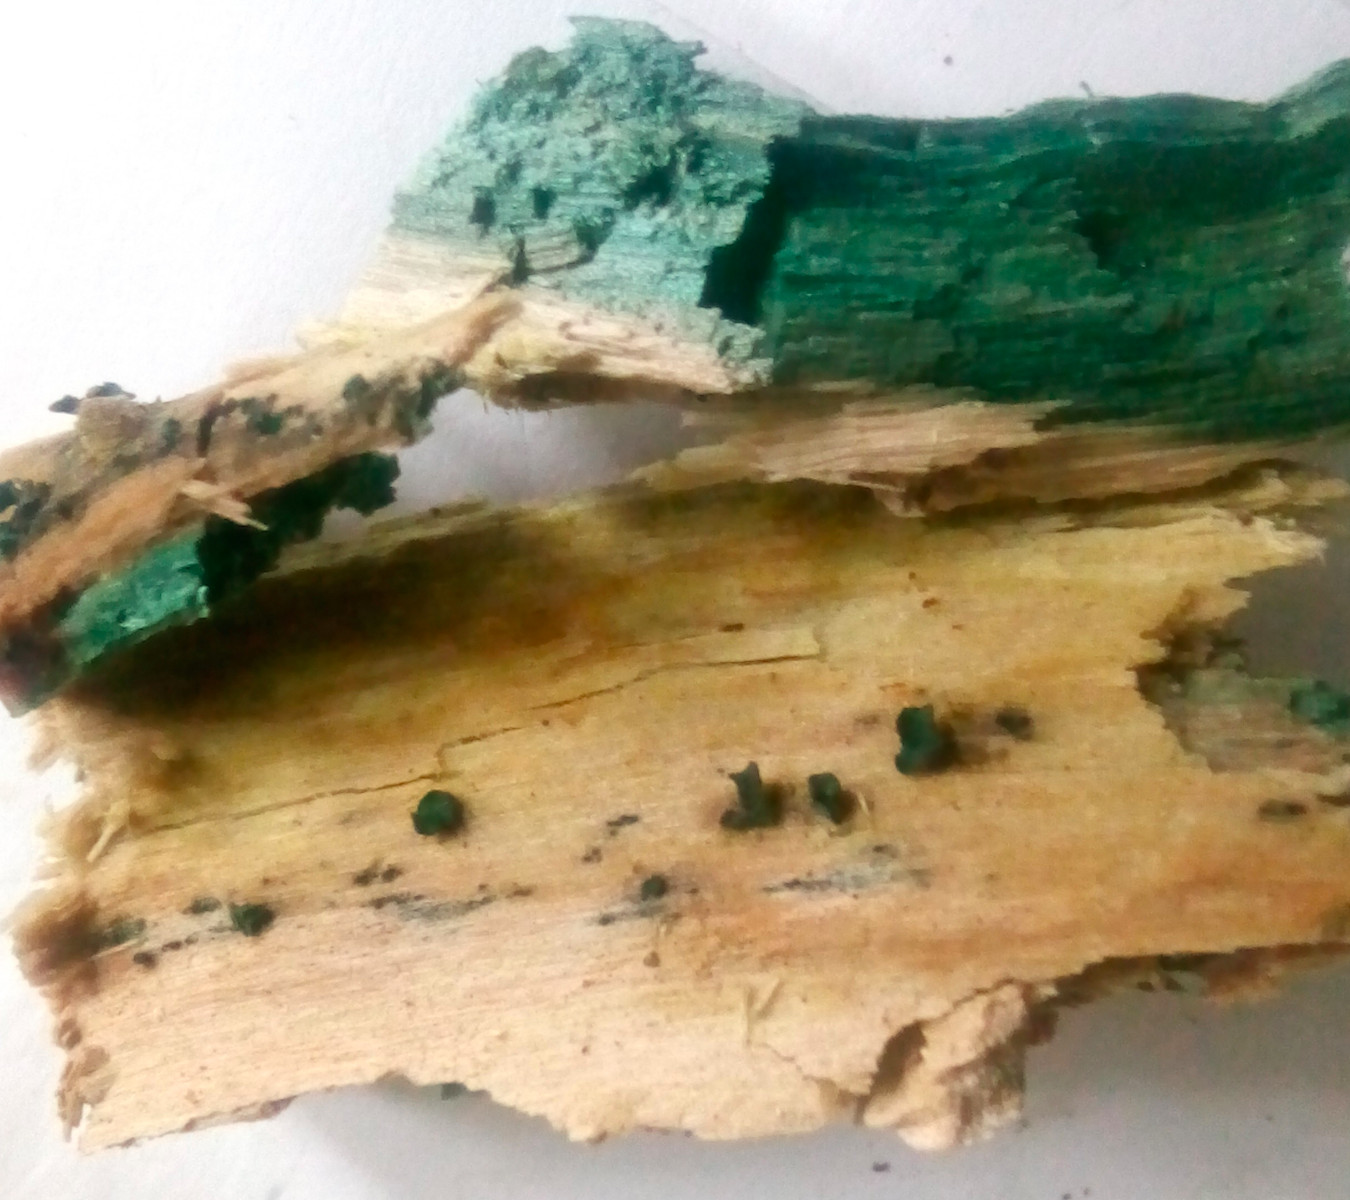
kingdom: Fungi
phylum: Ascomycota
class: Leotiomycetes
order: Helotiales
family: Chlorociboriaceae
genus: Chlorociboria
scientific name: Chlorociboria aeruginascens
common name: almindelig grønskive
